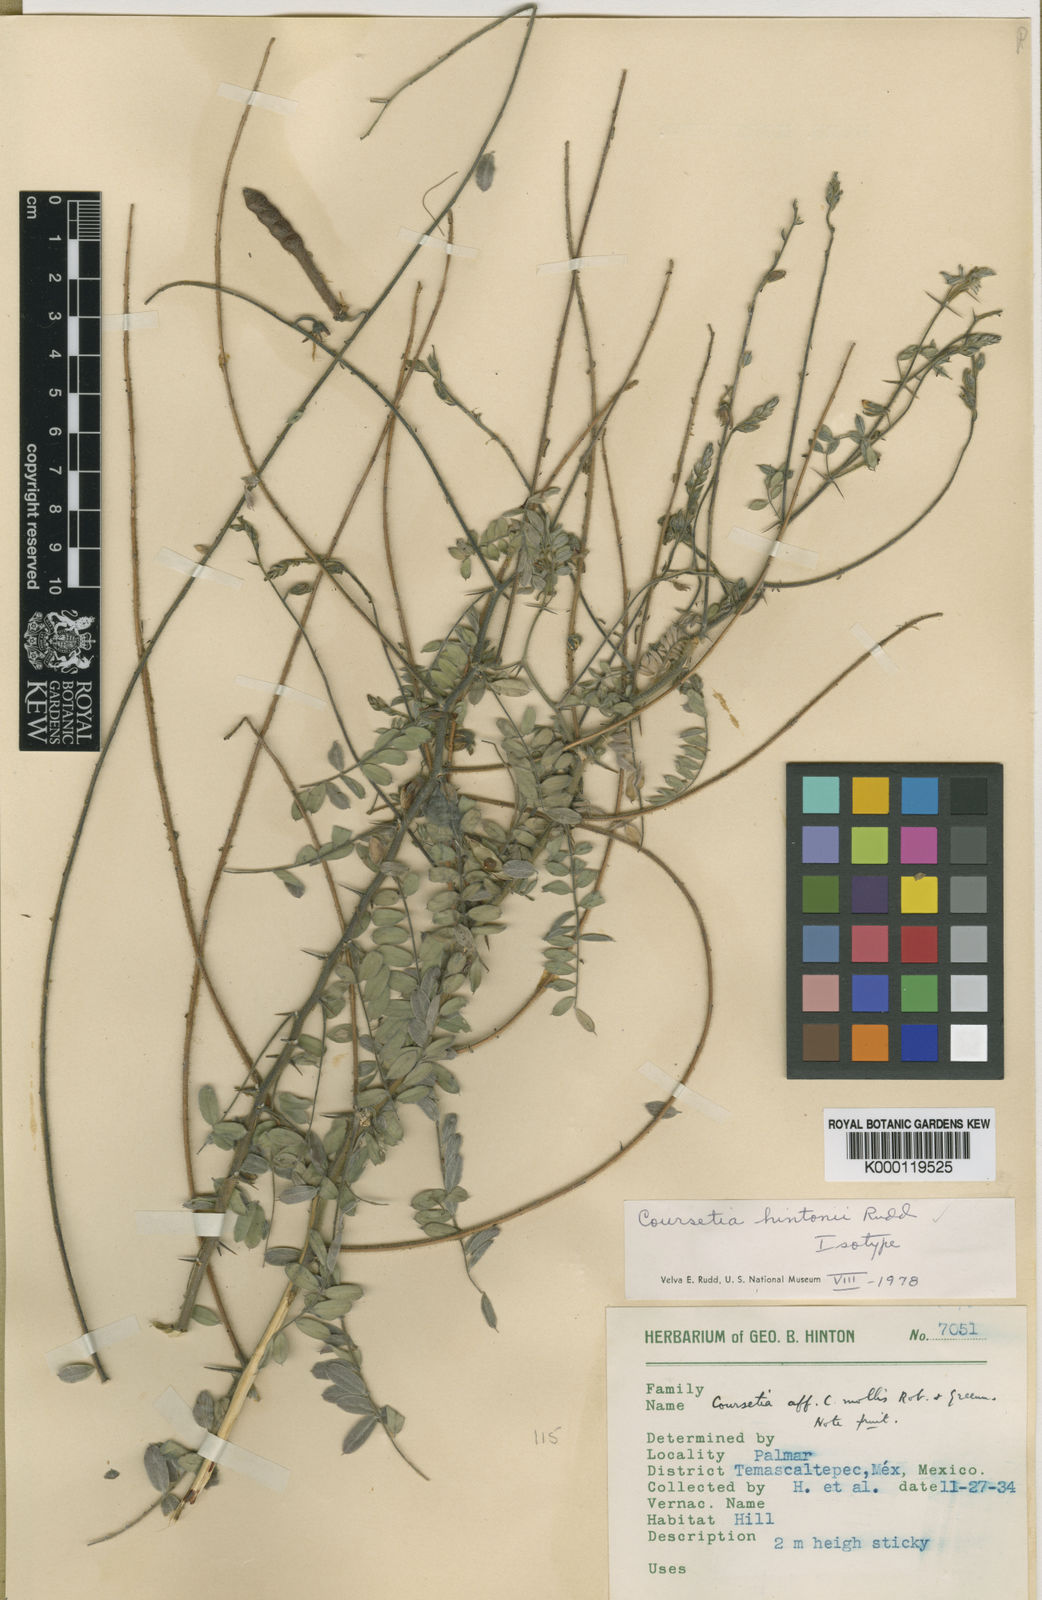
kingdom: Plantae
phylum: Tracheophyta
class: Magnoliopsida
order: Fabales
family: Fabaceae
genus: Coursetia
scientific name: Coursetia hintonii
